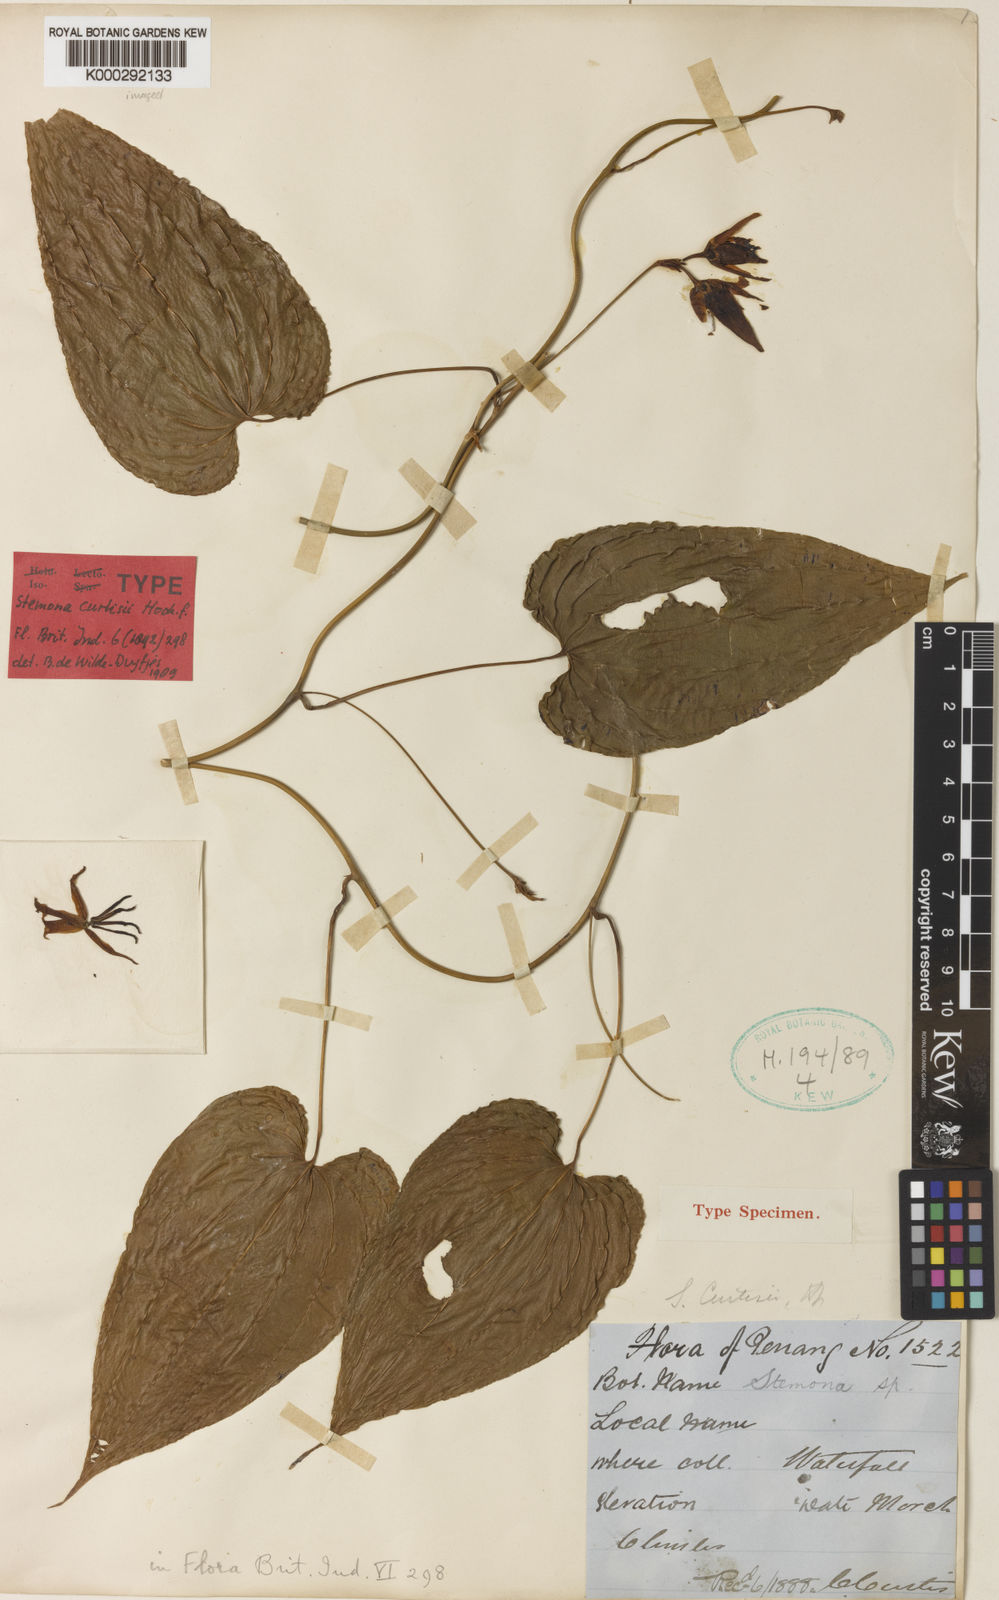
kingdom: Plantae
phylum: Tracheophyta
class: Liliopsida
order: Pandanales
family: Stemonaceae
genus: Stemona
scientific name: Stemona curtisii
